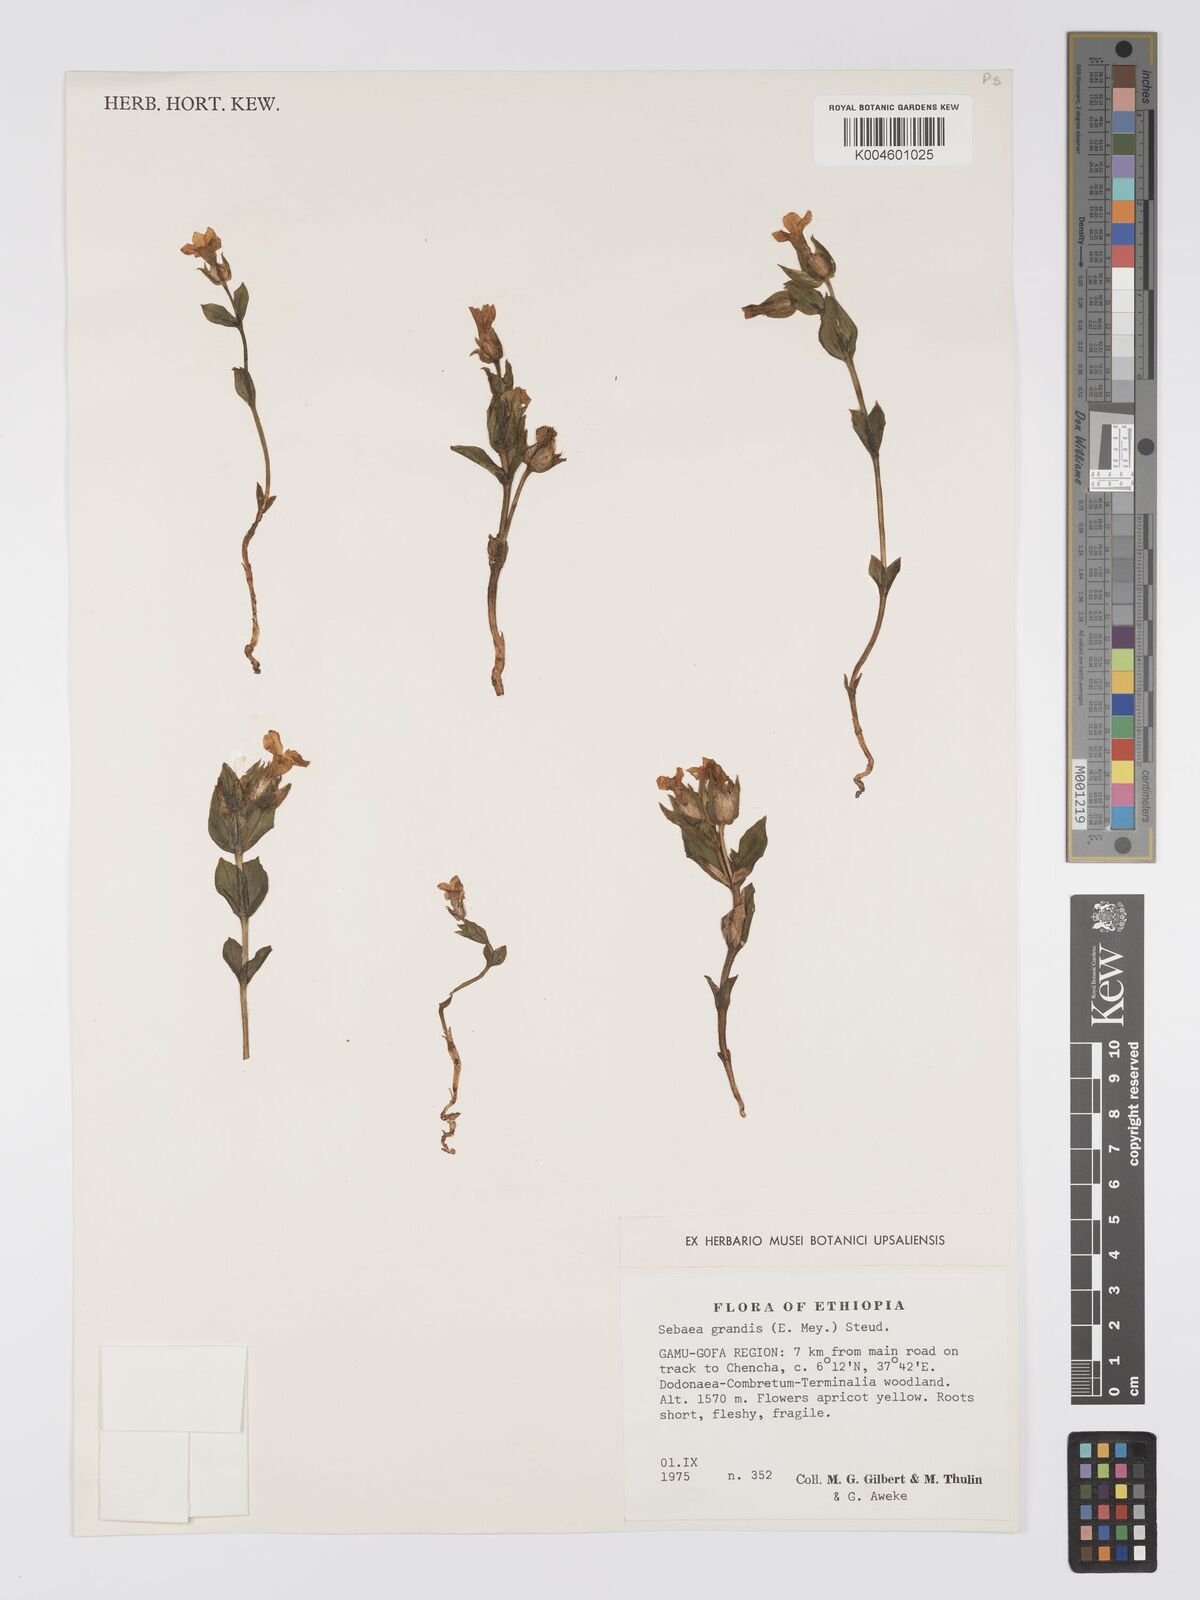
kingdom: Plantae
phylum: Tracheophyta
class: Magnoliopsida
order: Gentianales
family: Gentianaceae
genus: Exochaenium
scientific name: Exochaenium grande
